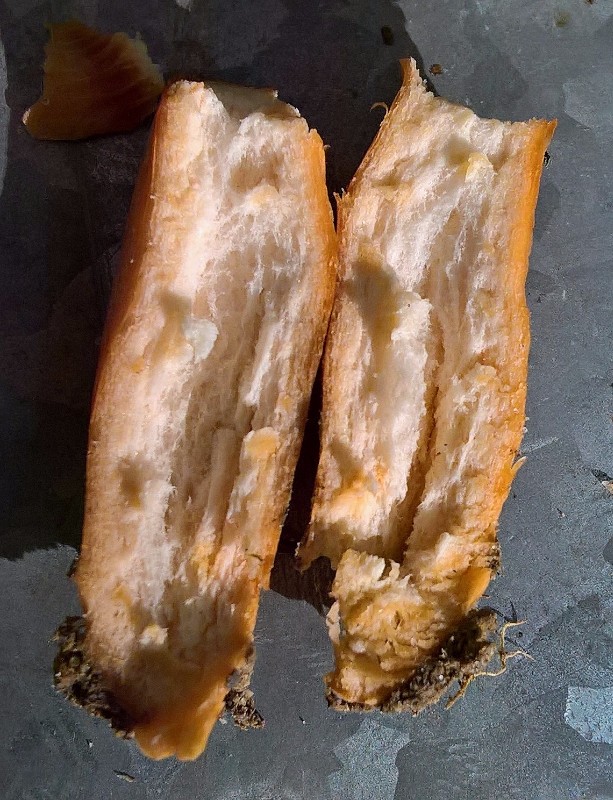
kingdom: Fungi
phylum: Basidiomycota
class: Agaricomycetes
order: Russulales
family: Russulaceae
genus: Lactarius
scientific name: Lactarius
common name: mælkehat
